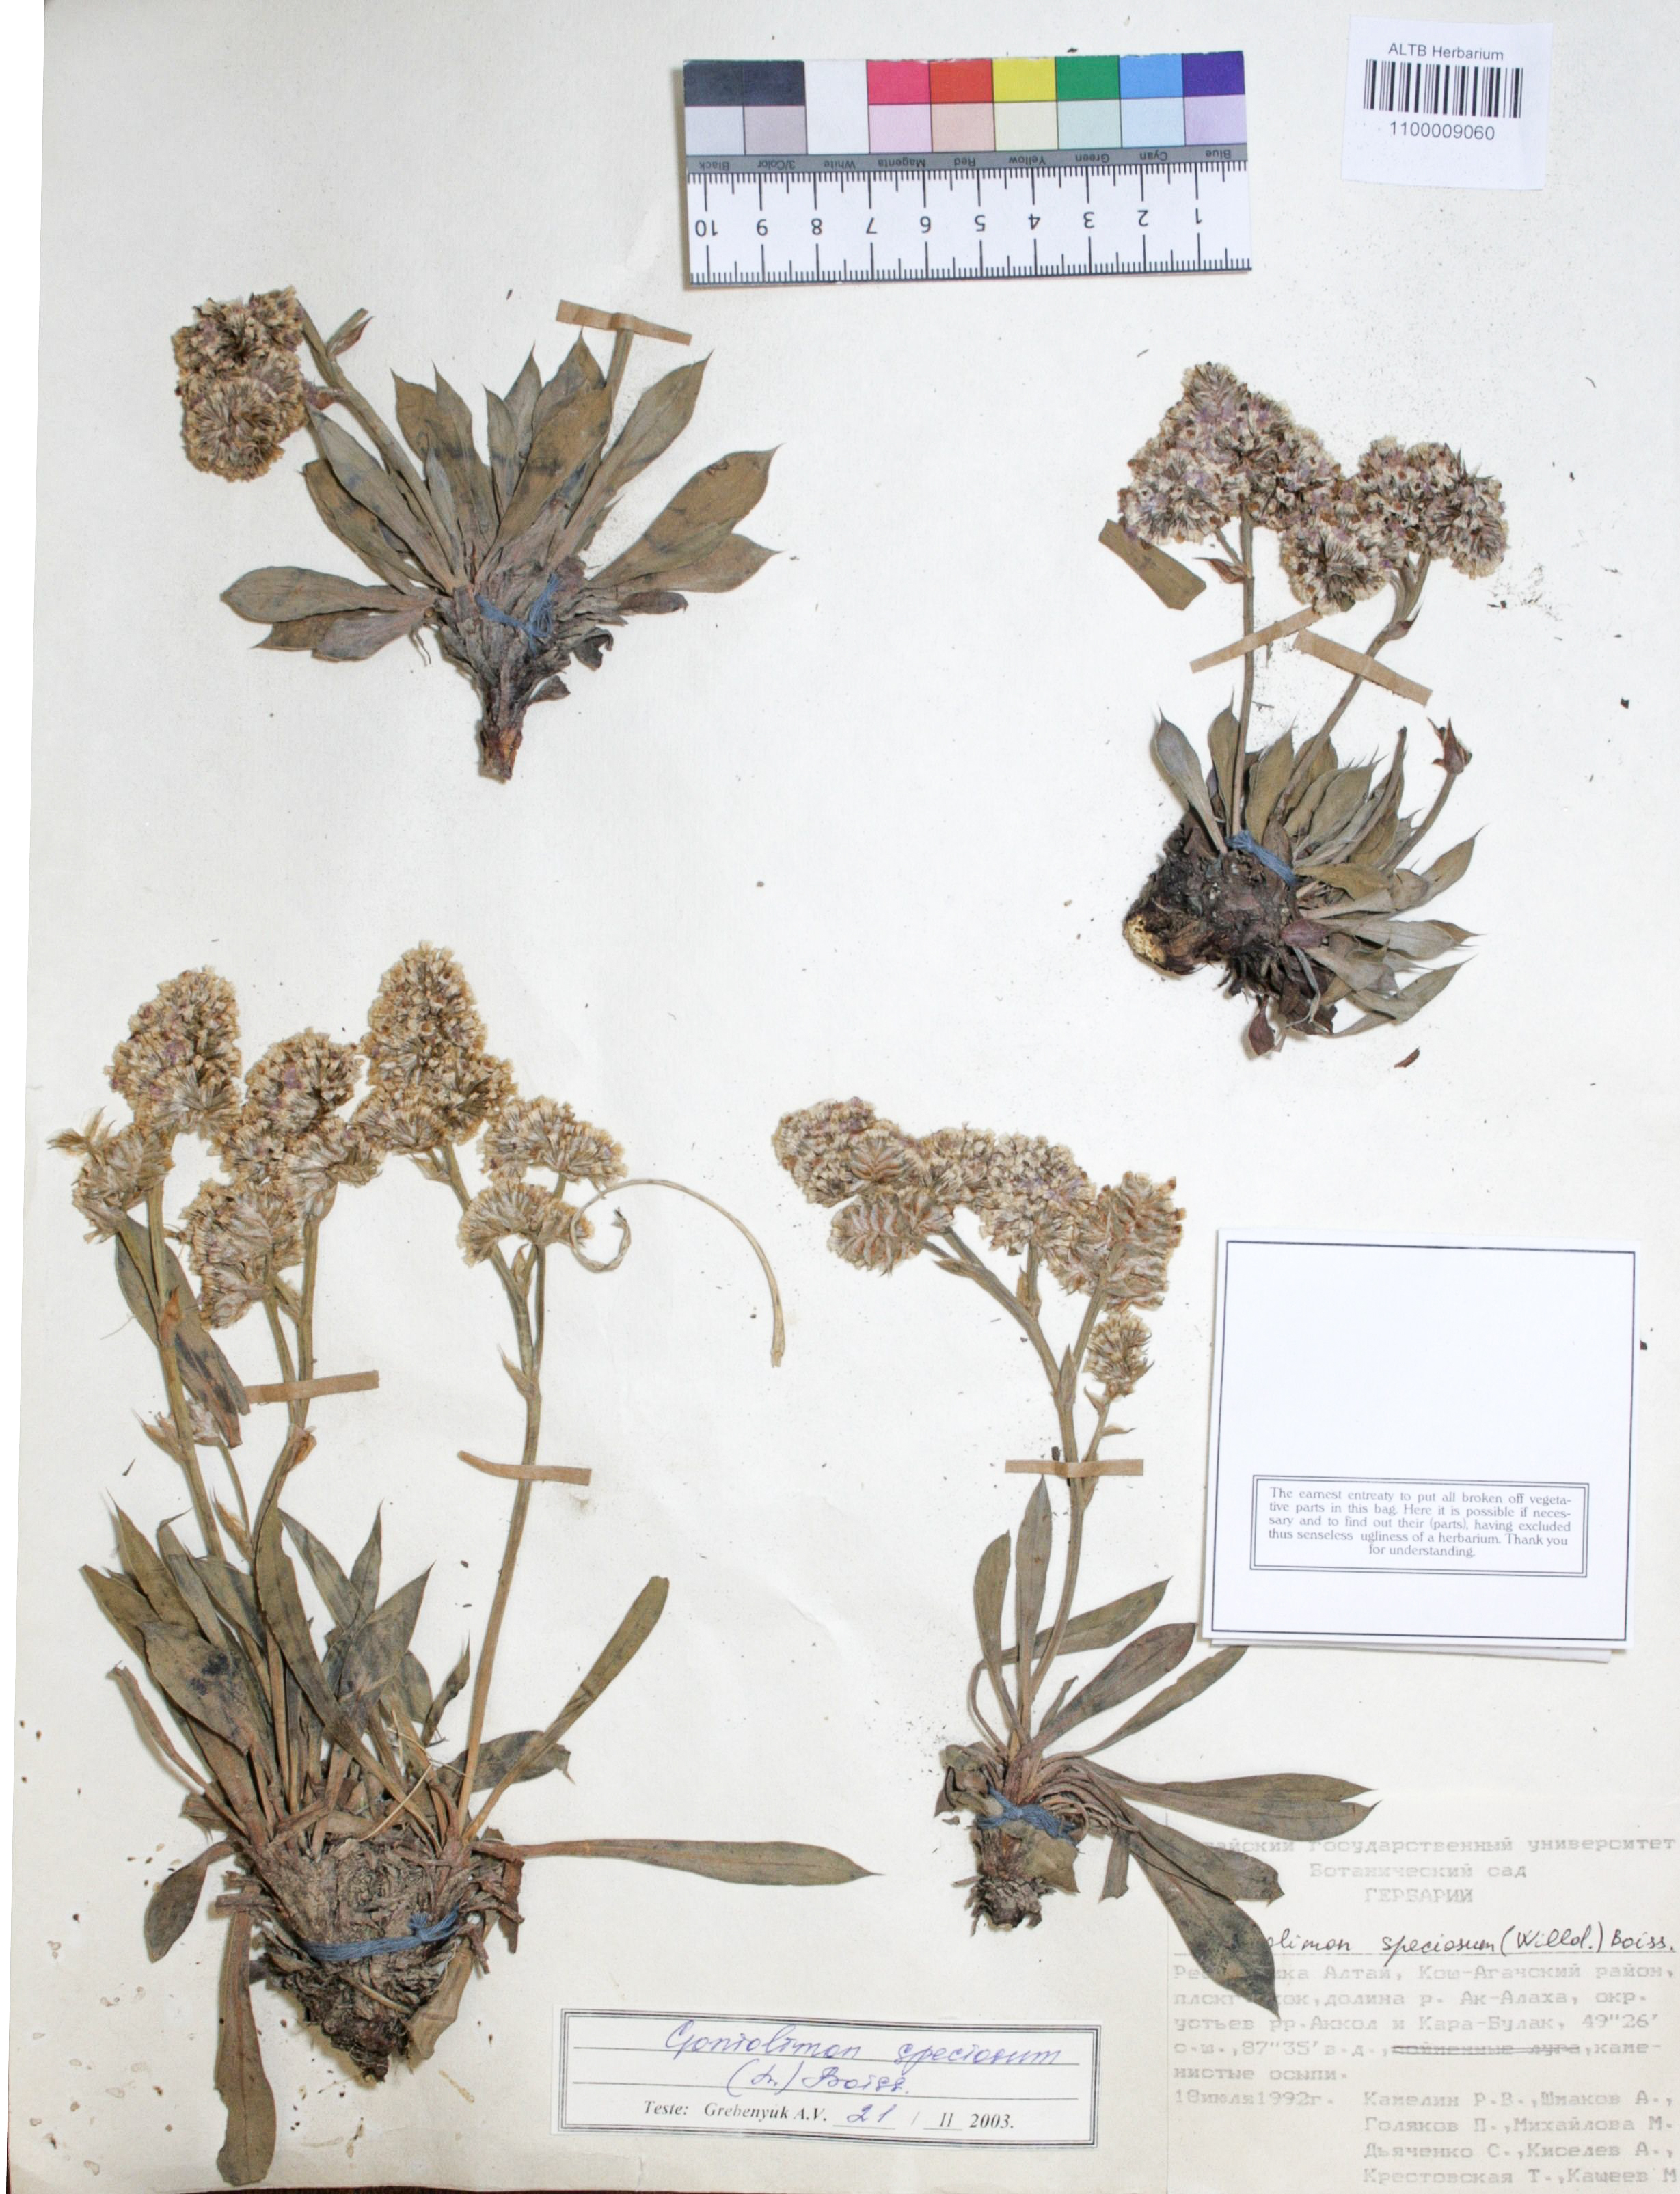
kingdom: Plantae
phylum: Tracheophyta
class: Magnoliopsida
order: Caryophyllales
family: Plumbaginaceae
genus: Goniolimon
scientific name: Goniolimon speciosum
